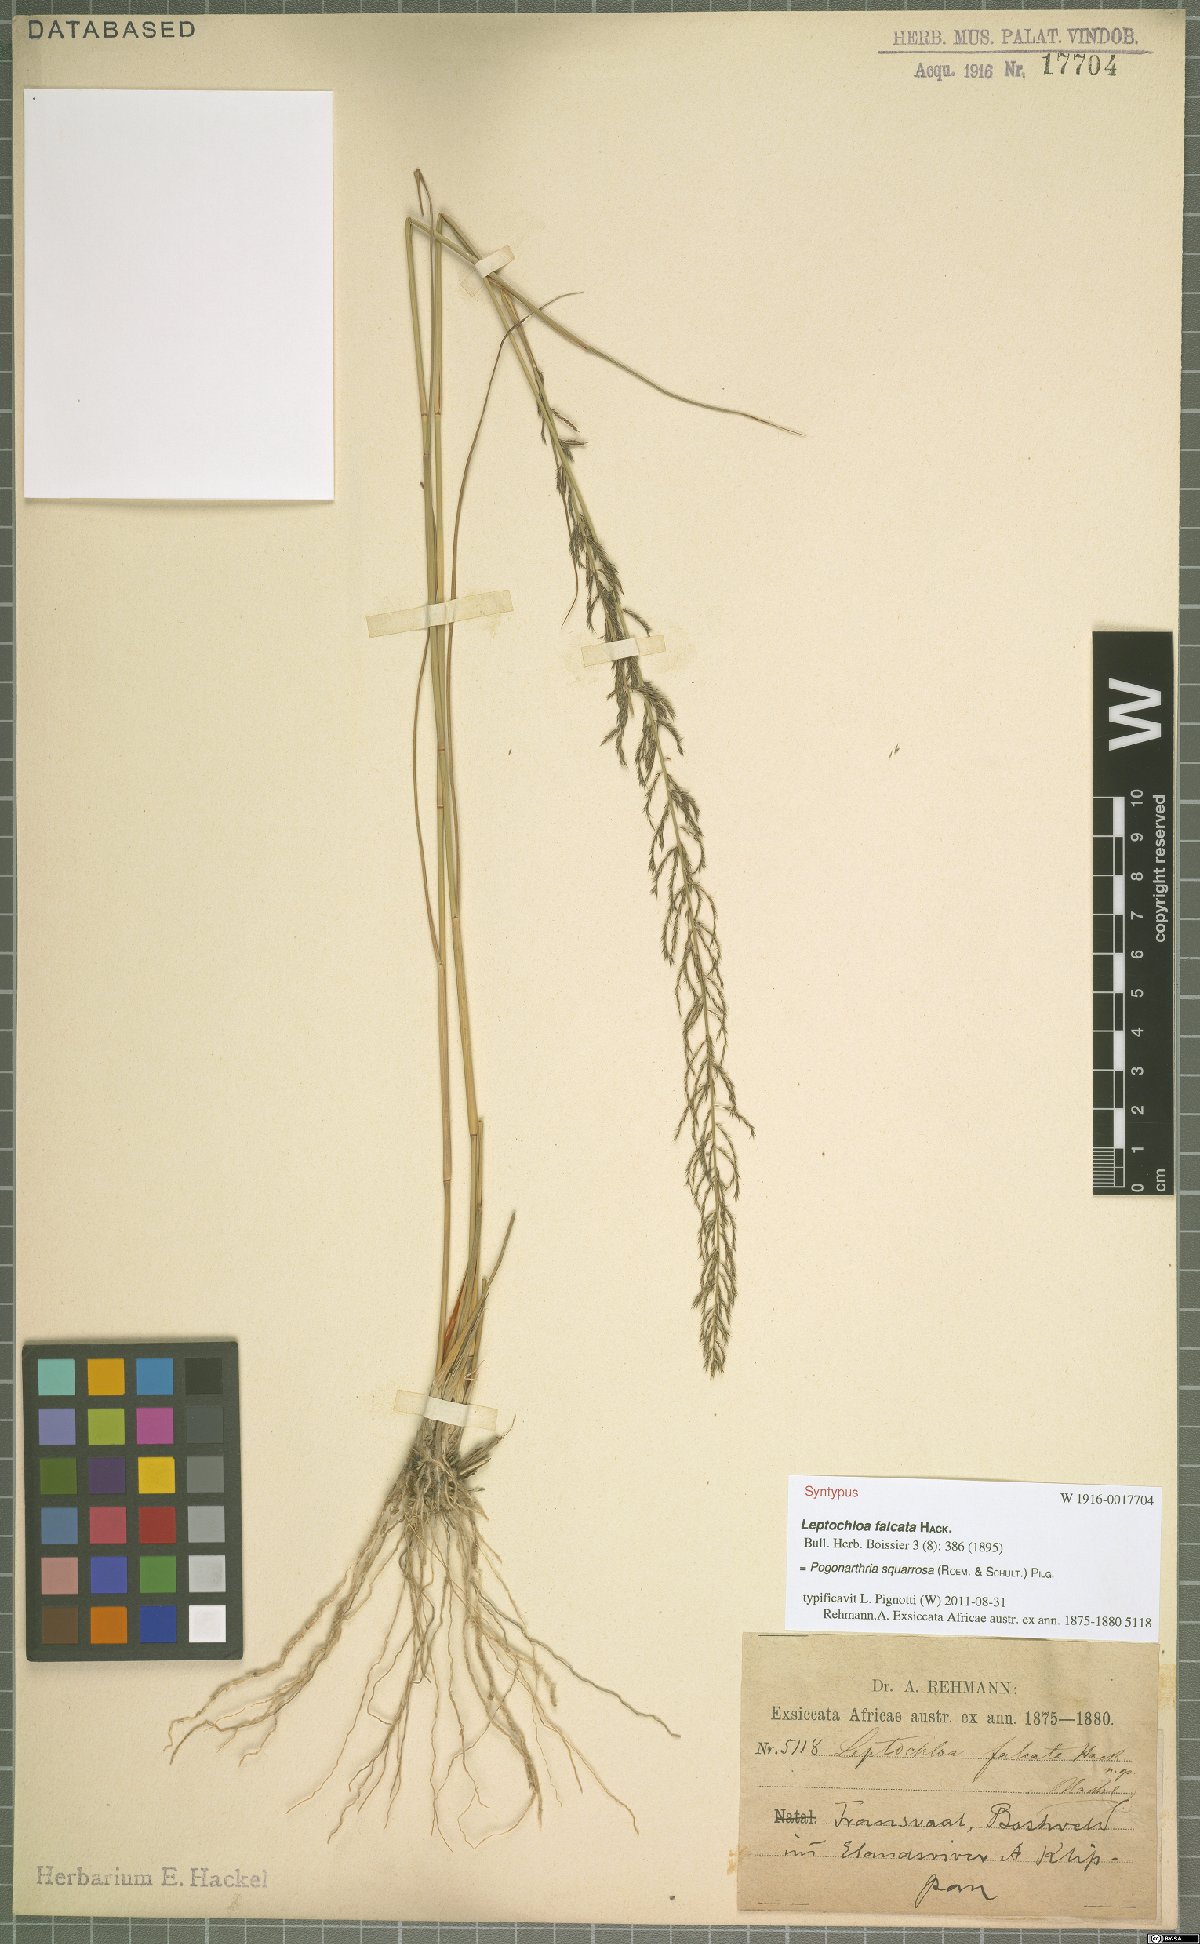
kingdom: Plantae
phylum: Tracheophyta
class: Liliopsida
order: Poales
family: Poaceae
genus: Pogonarthria
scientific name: Pogonarthria squarrosa
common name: Grass
